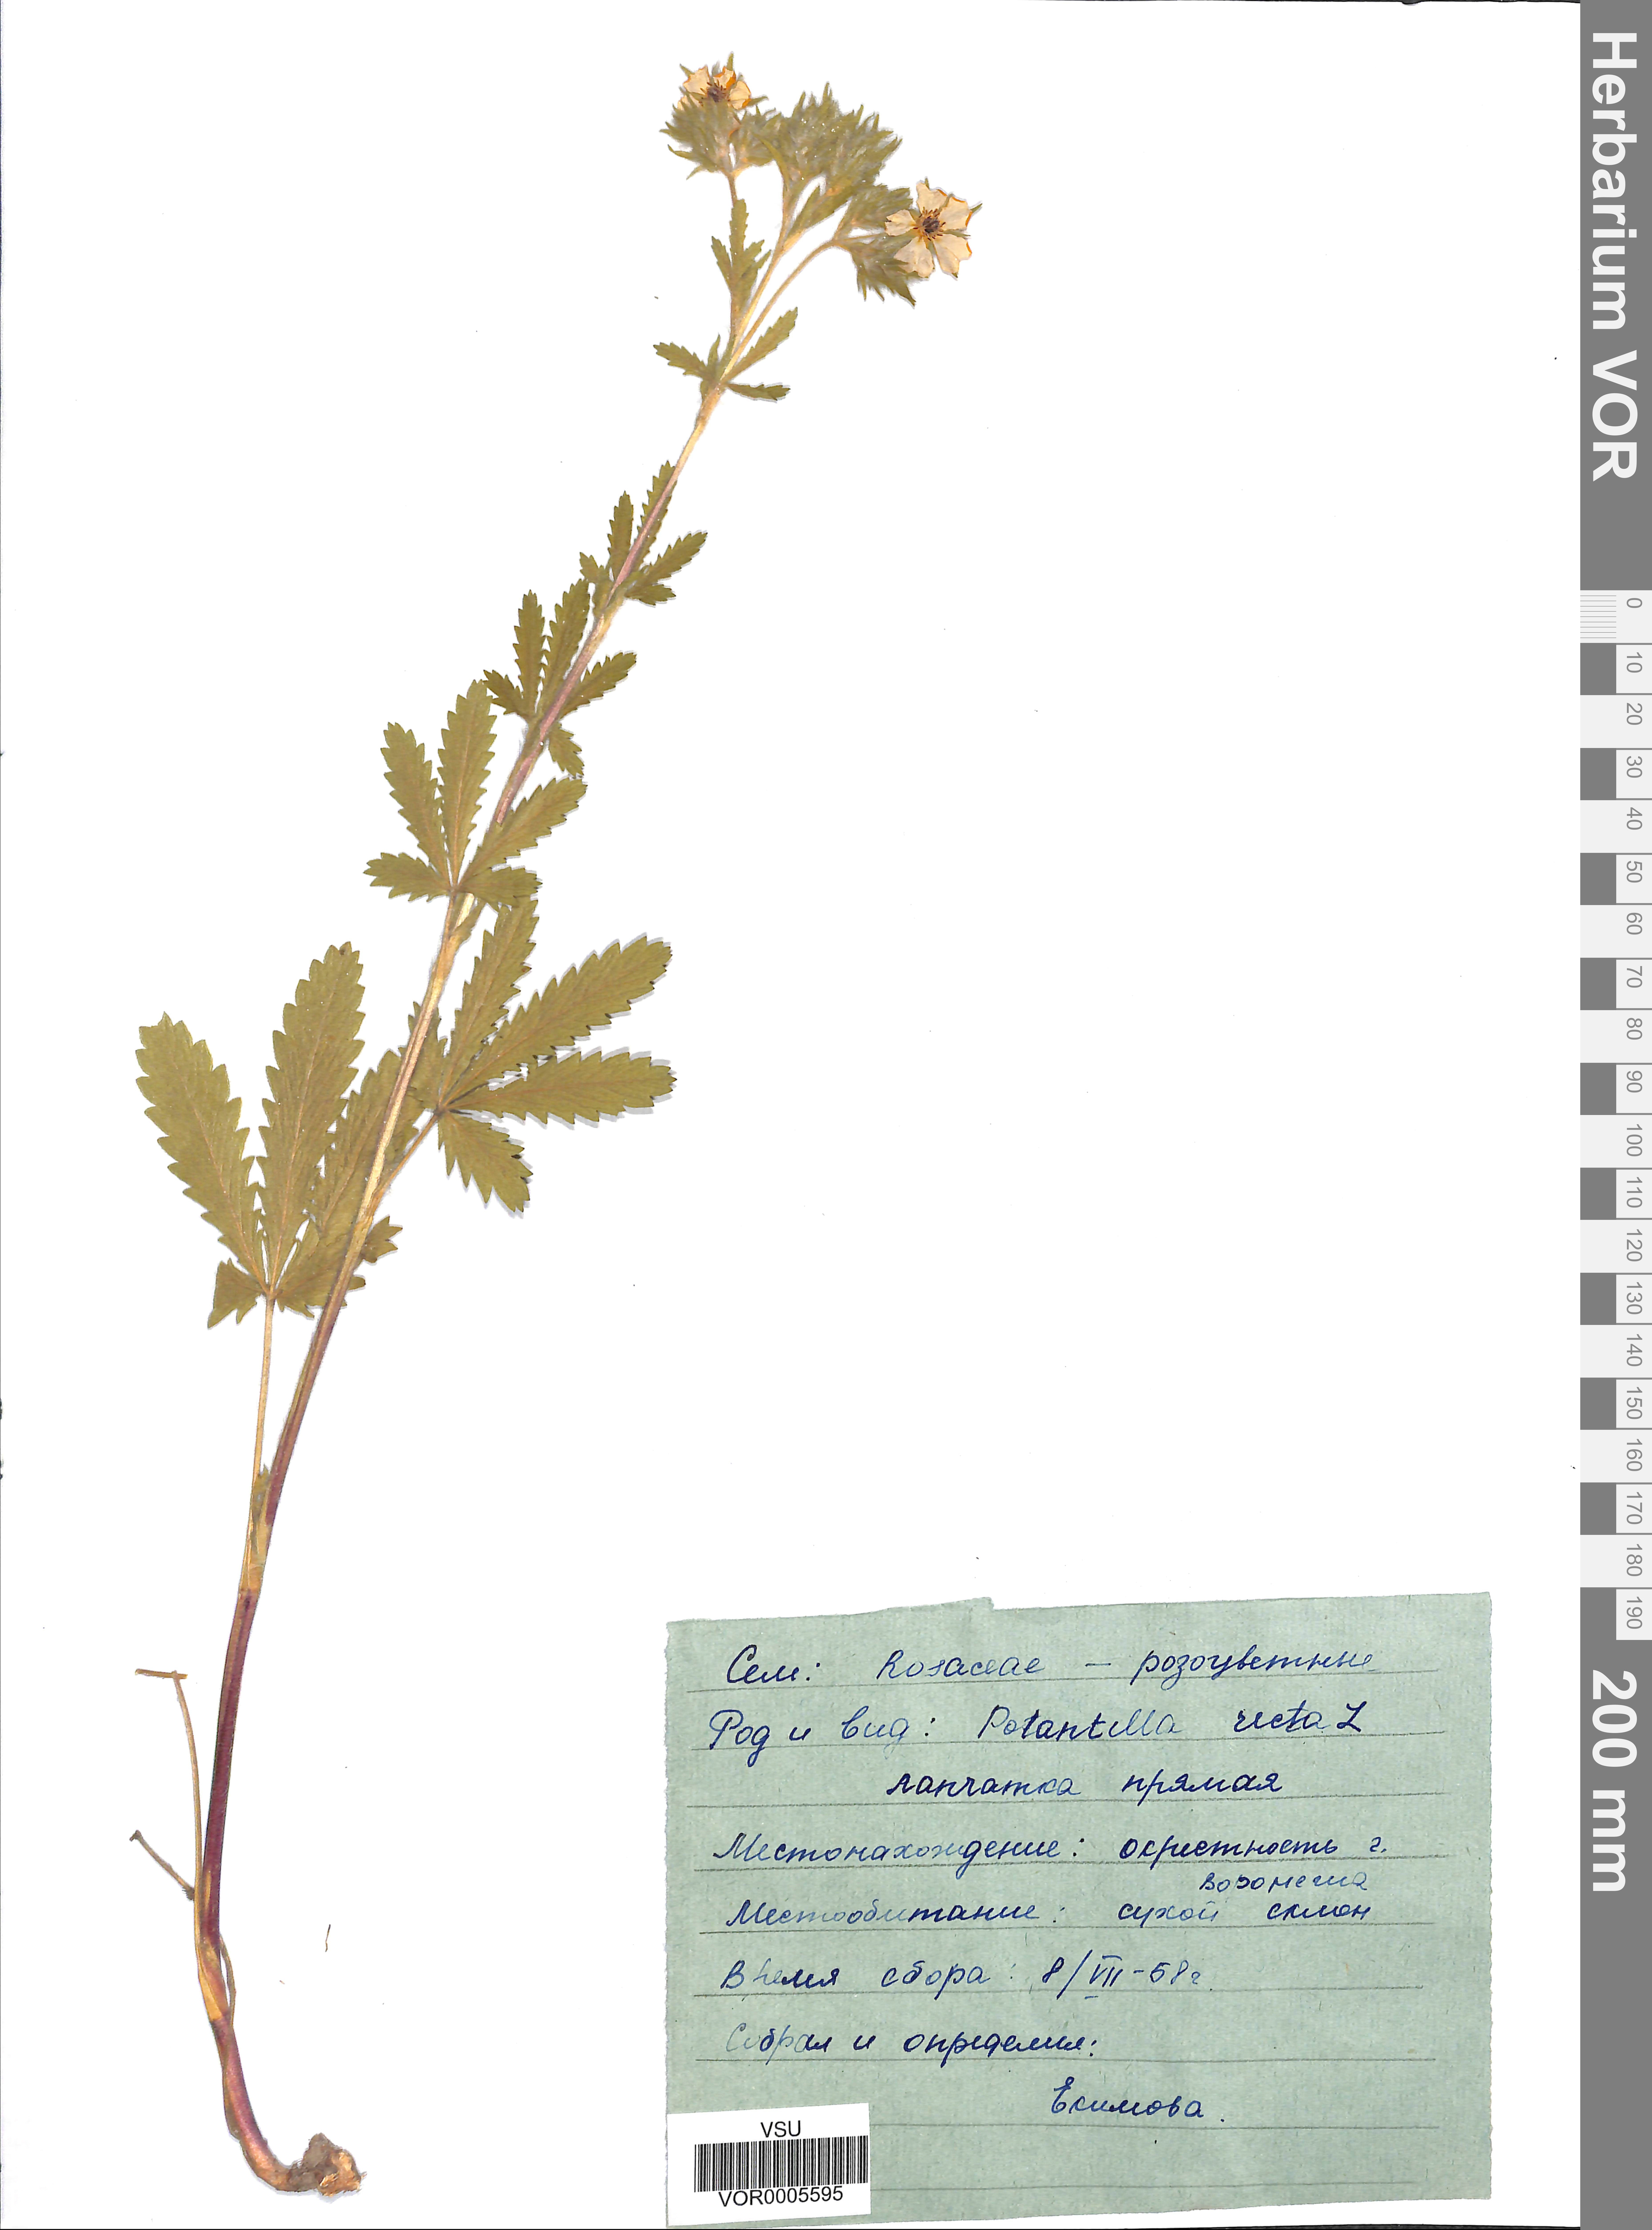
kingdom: Plantae
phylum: Tracheophyta
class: Magnoliopsida
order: Rosales
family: Rosaceae
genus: Potentilla
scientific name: Potentilla recta
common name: Sulphur cinquefoil
